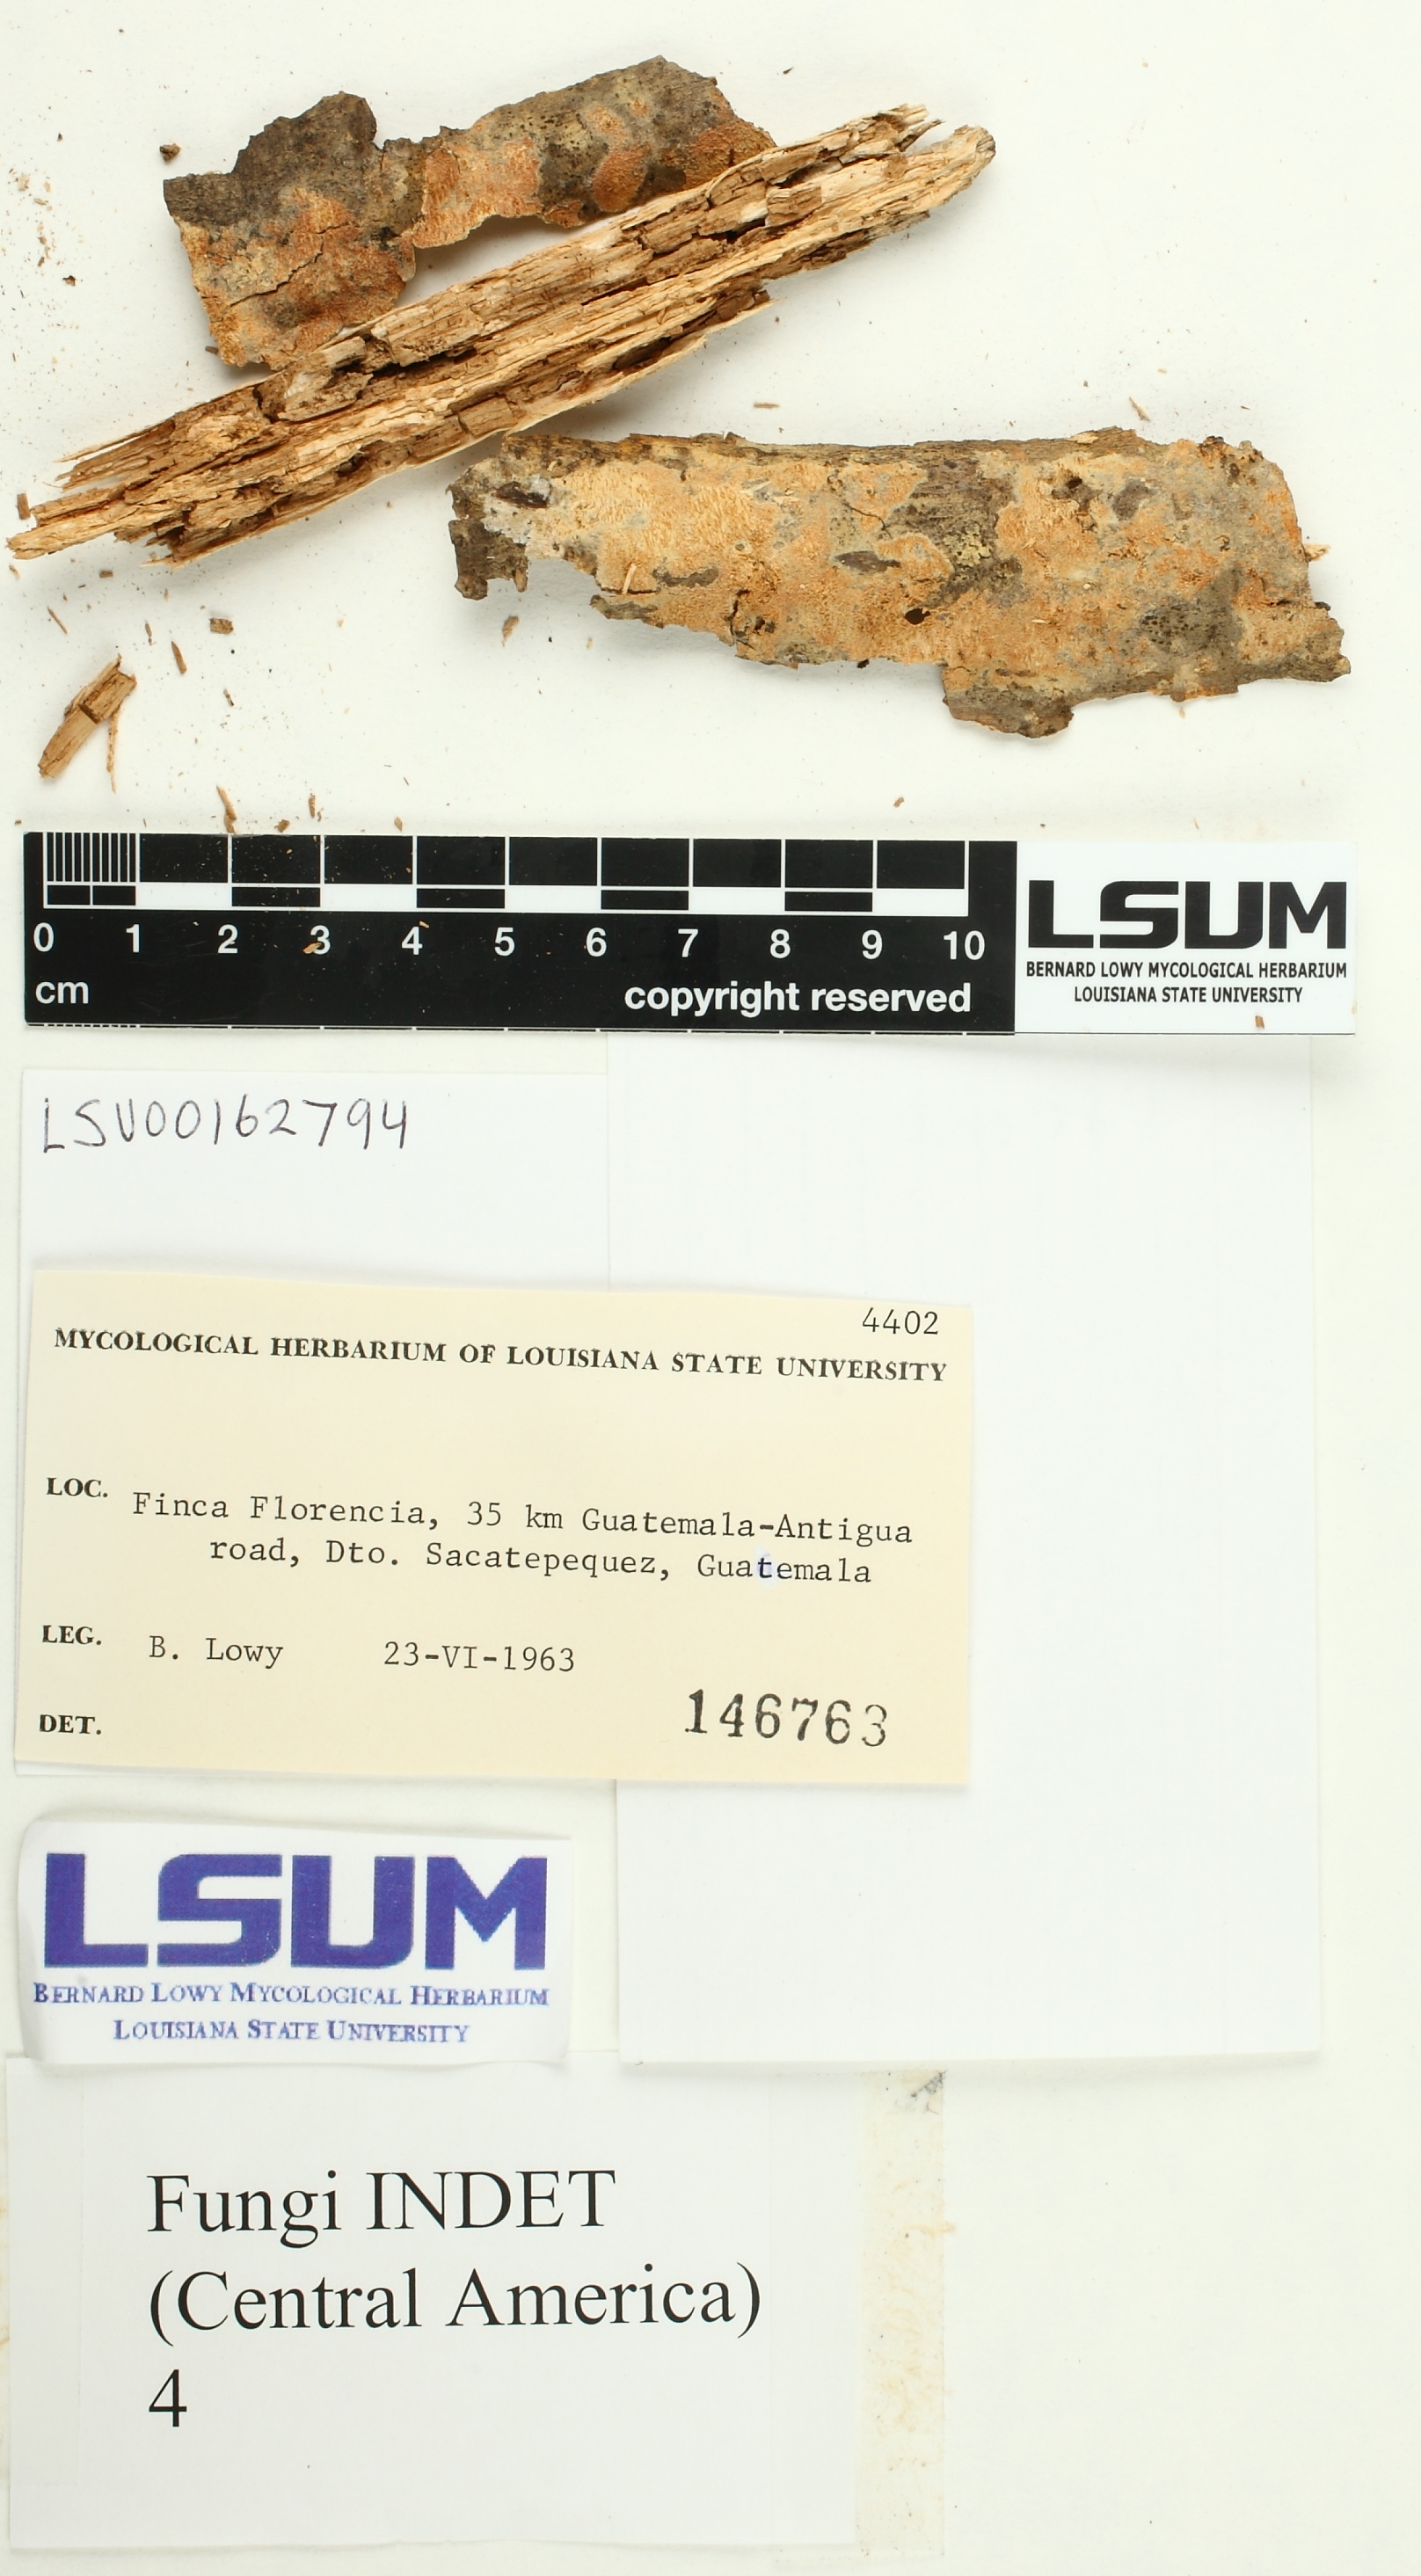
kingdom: Fungi
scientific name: Fungi
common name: Fungi
